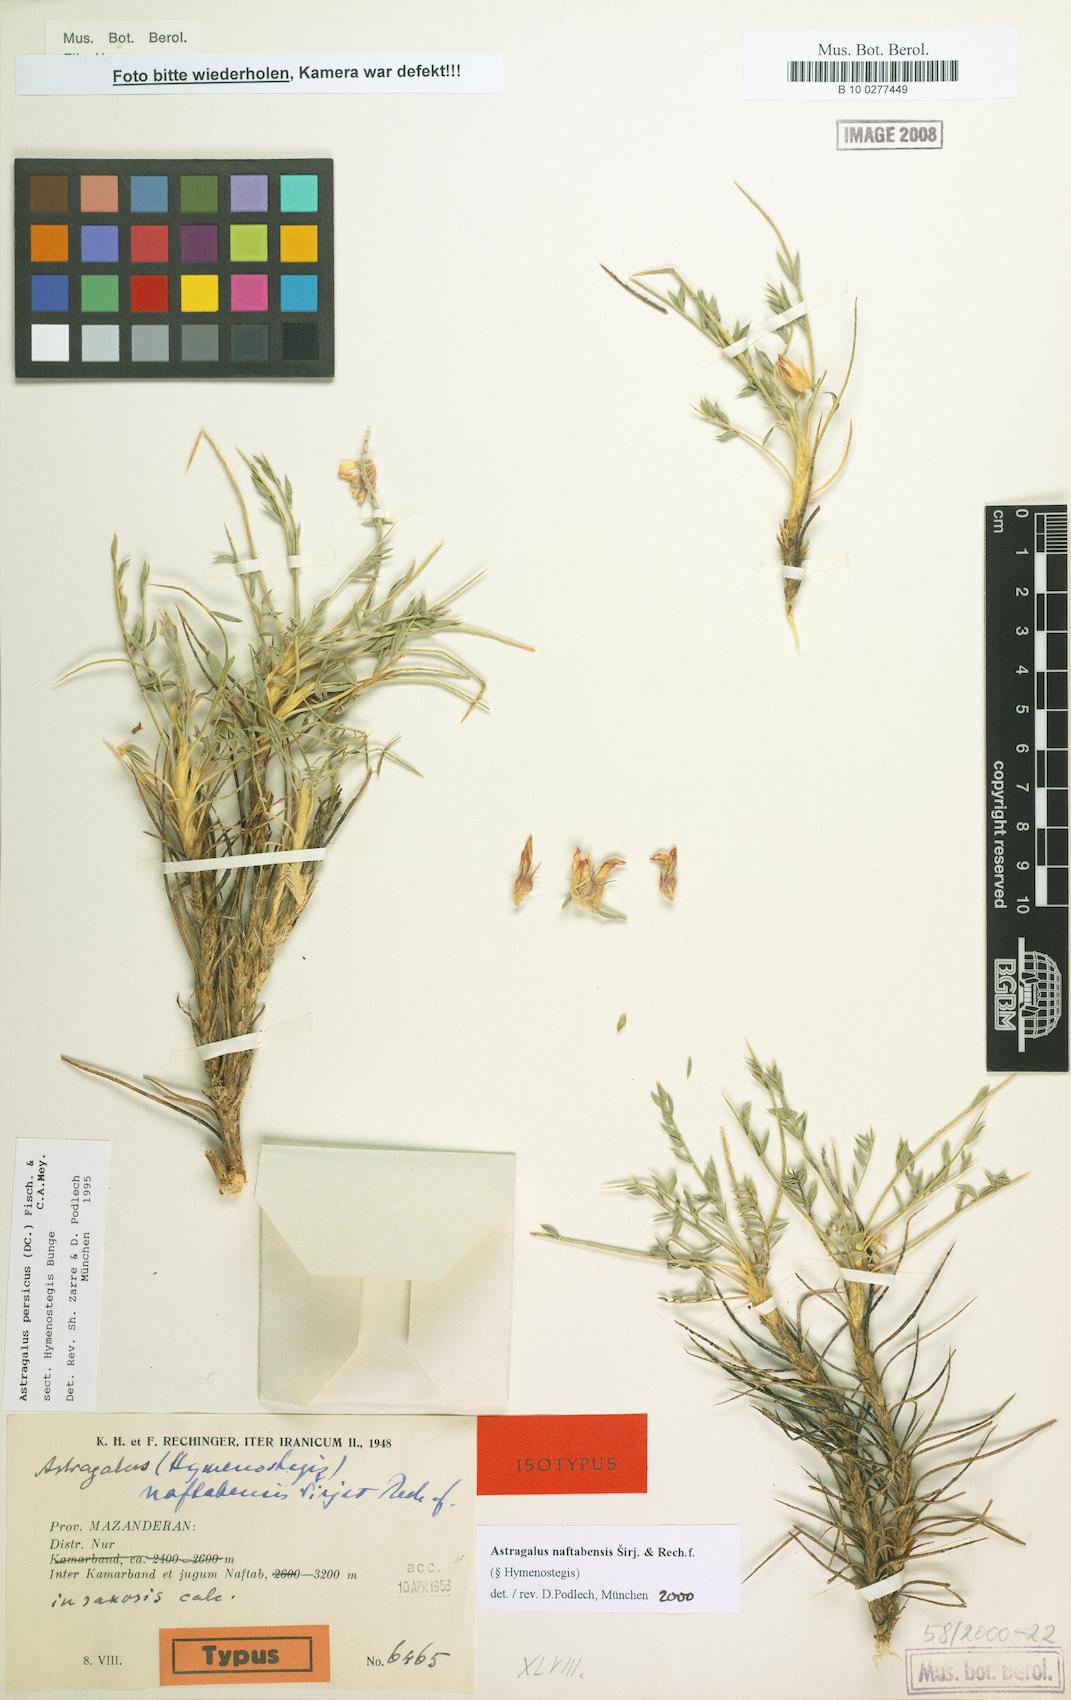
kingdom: Plantae
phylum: Tracheophyta
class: Magnoliopsida
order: Fabales
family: Fabaceae
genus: Astragalus
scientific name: Astragalus naftabensis
